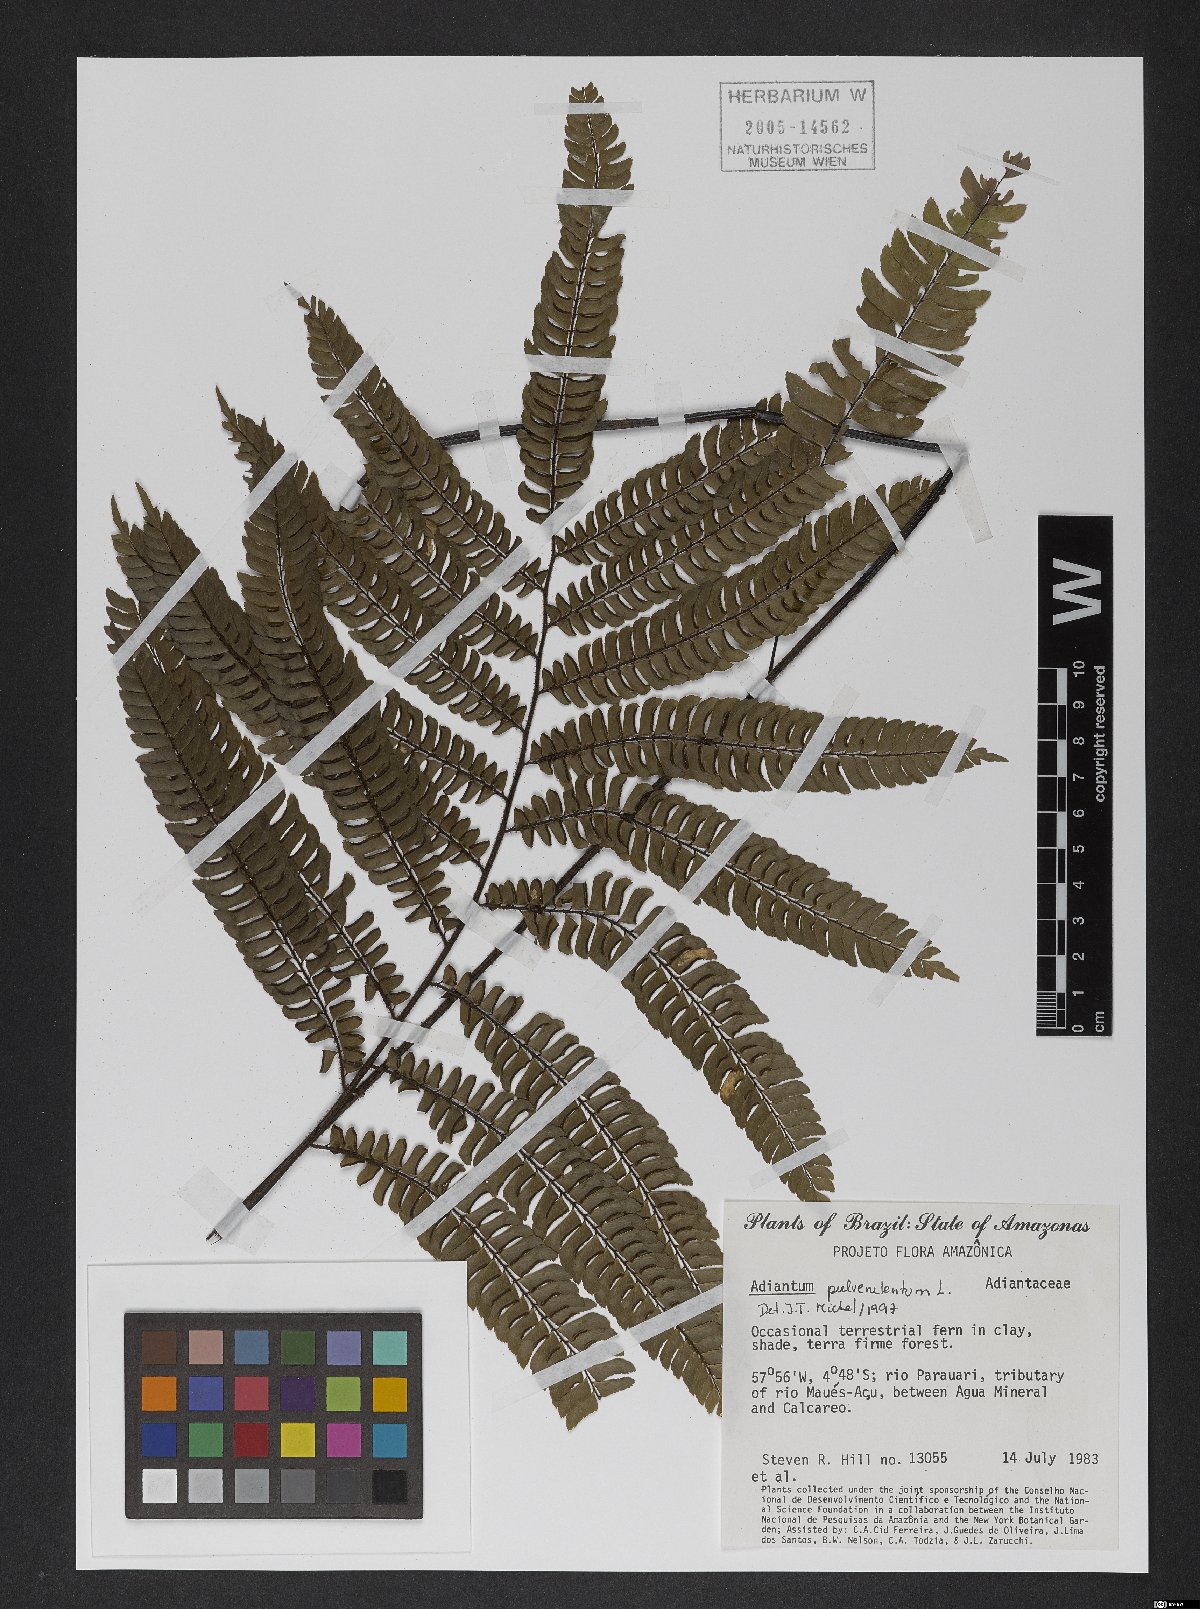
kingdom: Plantae
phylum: Tracheophyta
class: Polypodiopsida
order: Polypodiales
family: Pteridaceae
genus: Adiantum
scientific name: Adiantum pulverulentum
